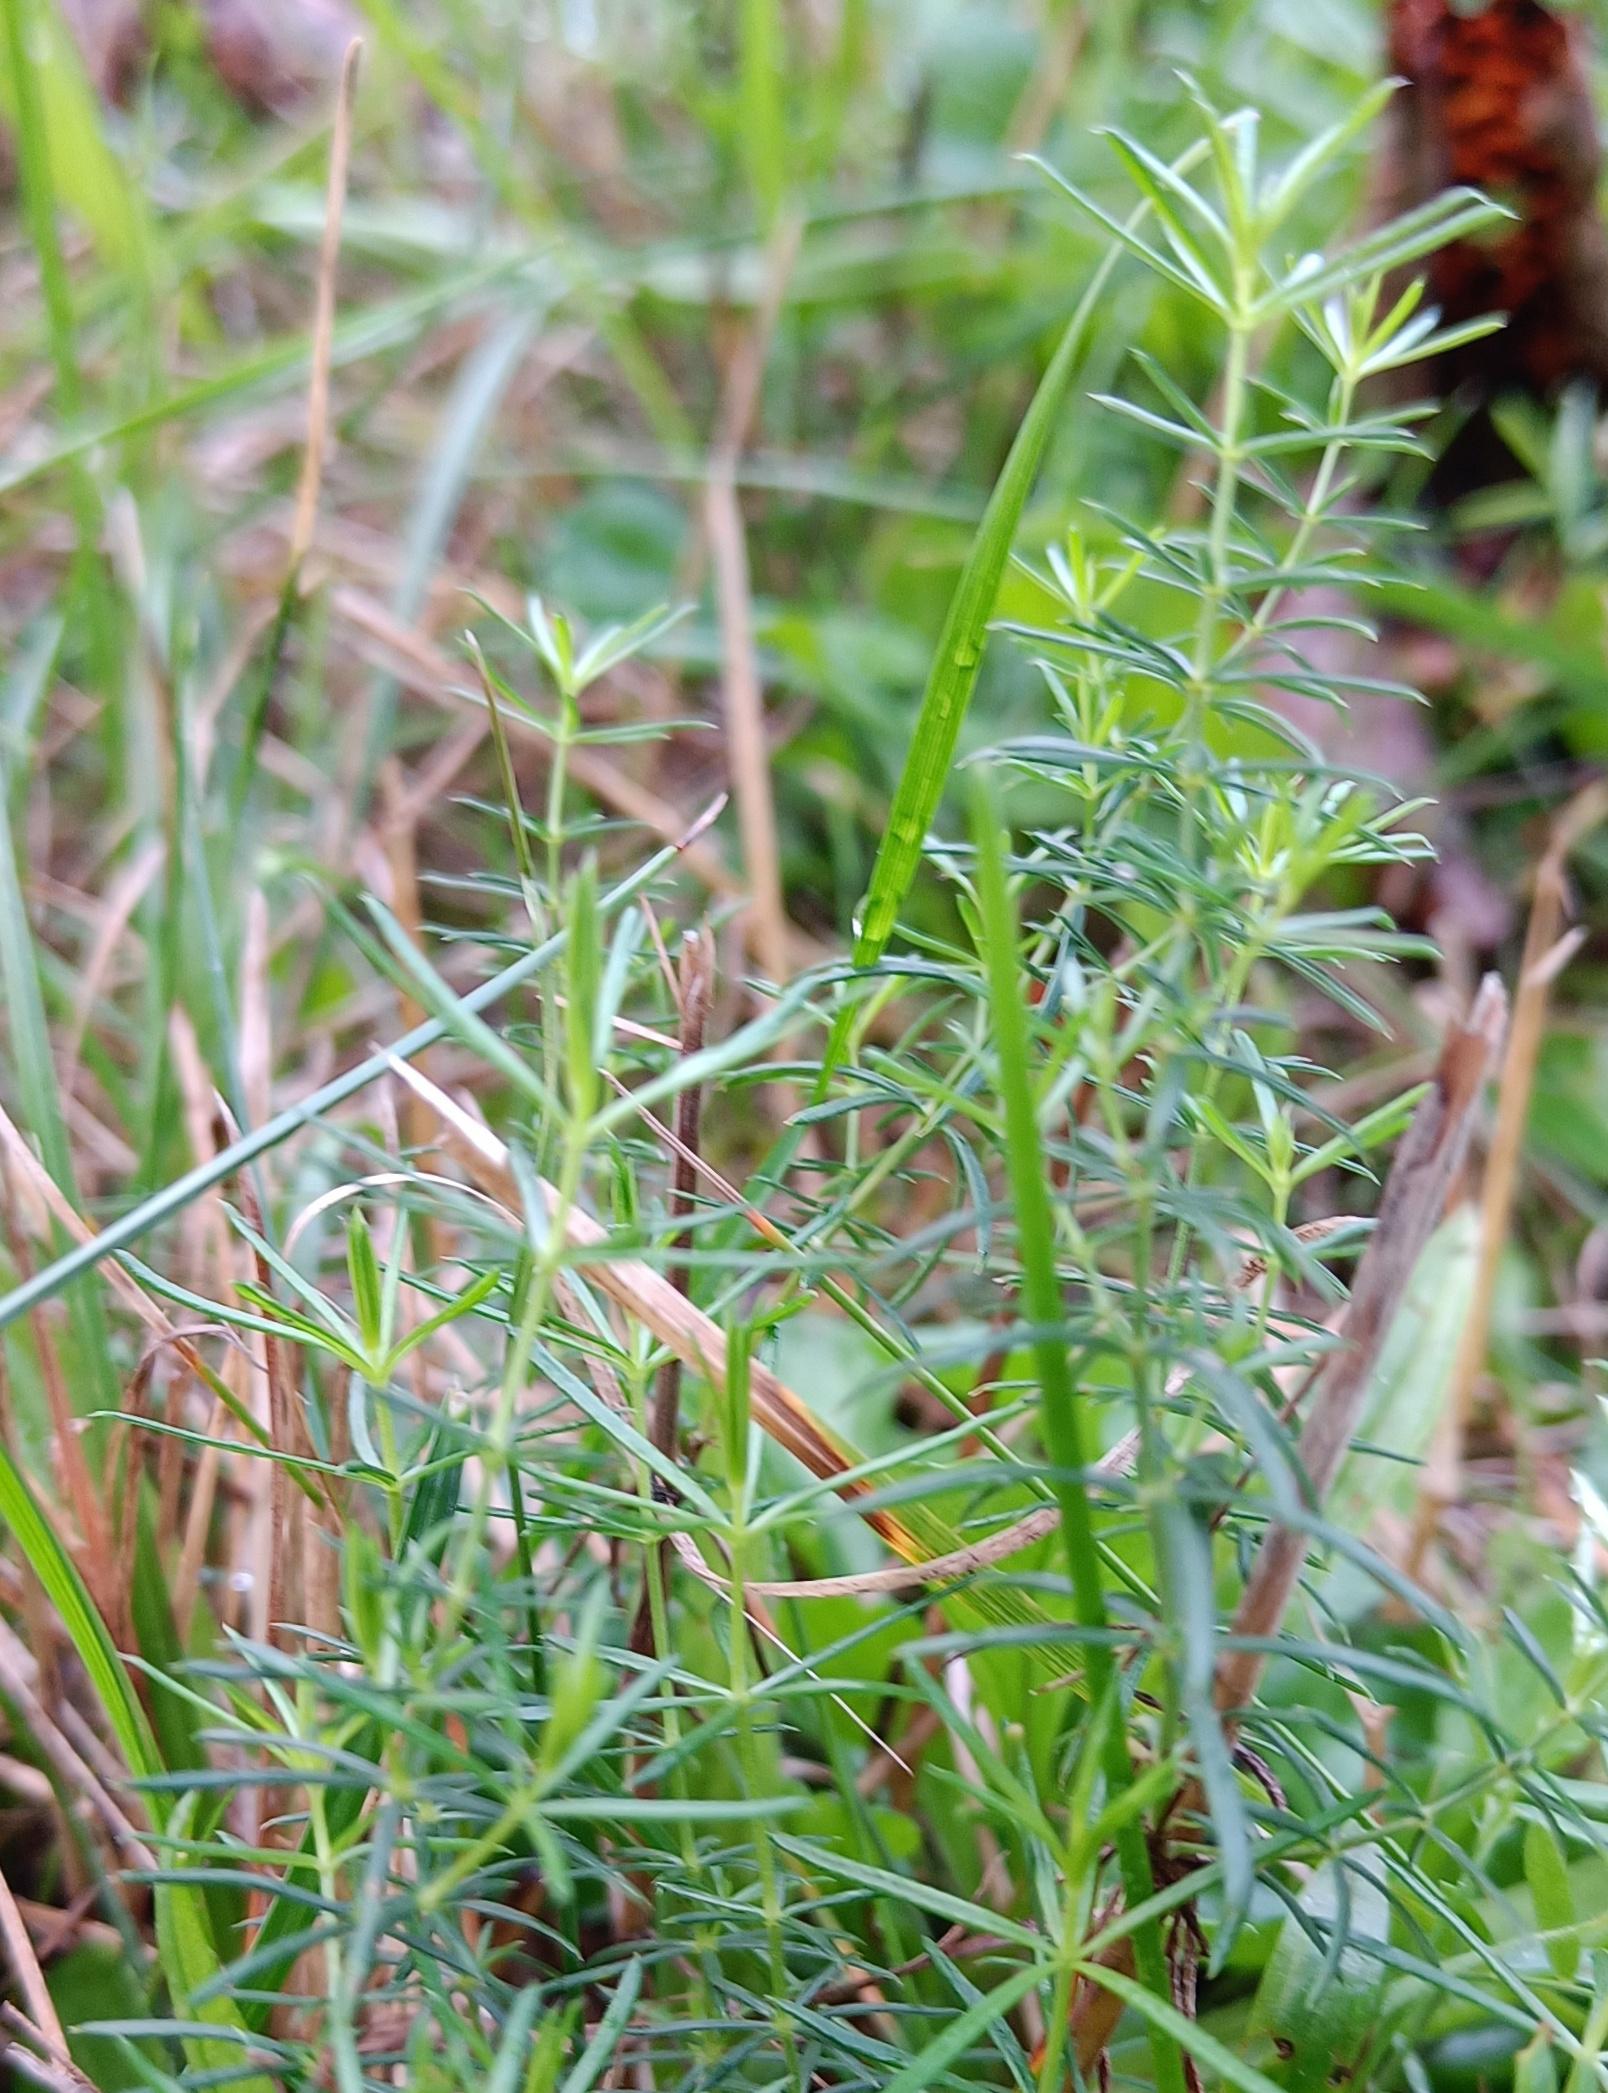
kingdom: Plantae
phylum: Tracheophyta
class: Magnoliopsida
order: Gentianales
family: Rubiaceae
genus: Galium
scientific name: Galium
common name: Snerreslægten
